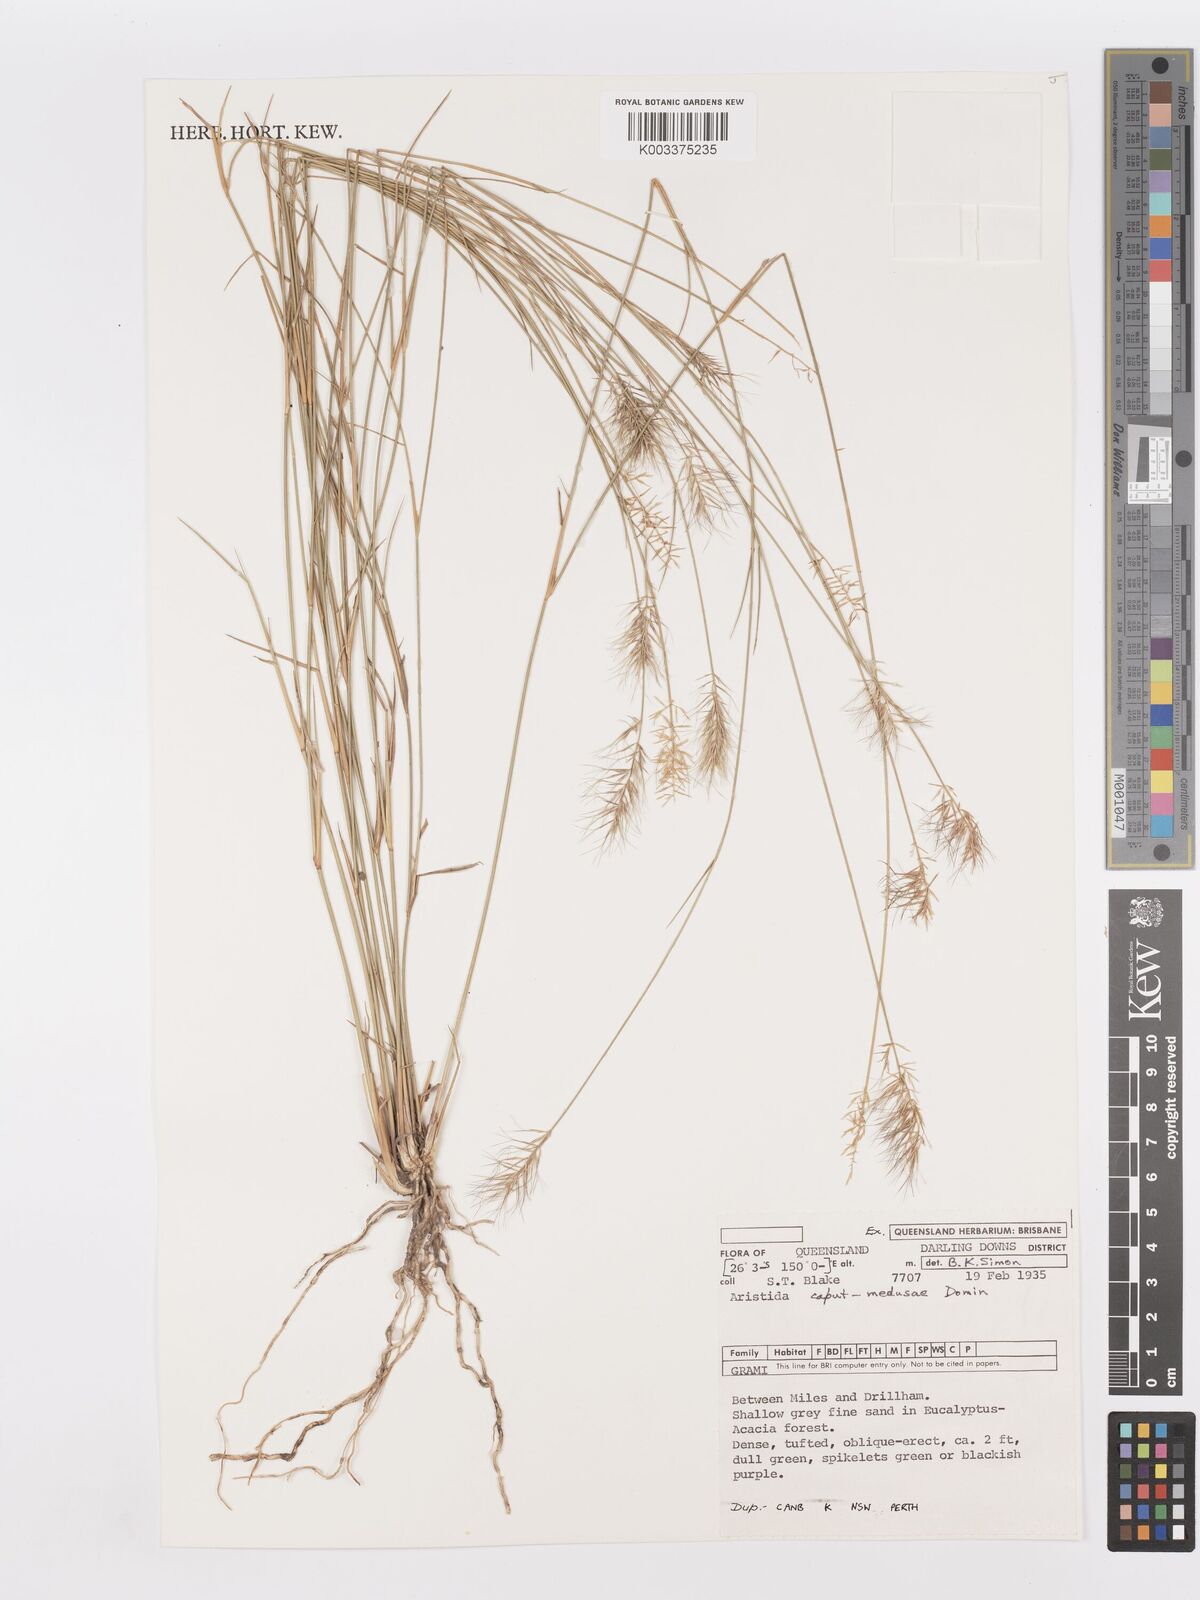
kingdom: Plantae
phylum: Tracheophyta
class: Liliopsida
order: Poales
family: Poaceae
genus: Aristida
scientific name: Aristida caput-medusae
